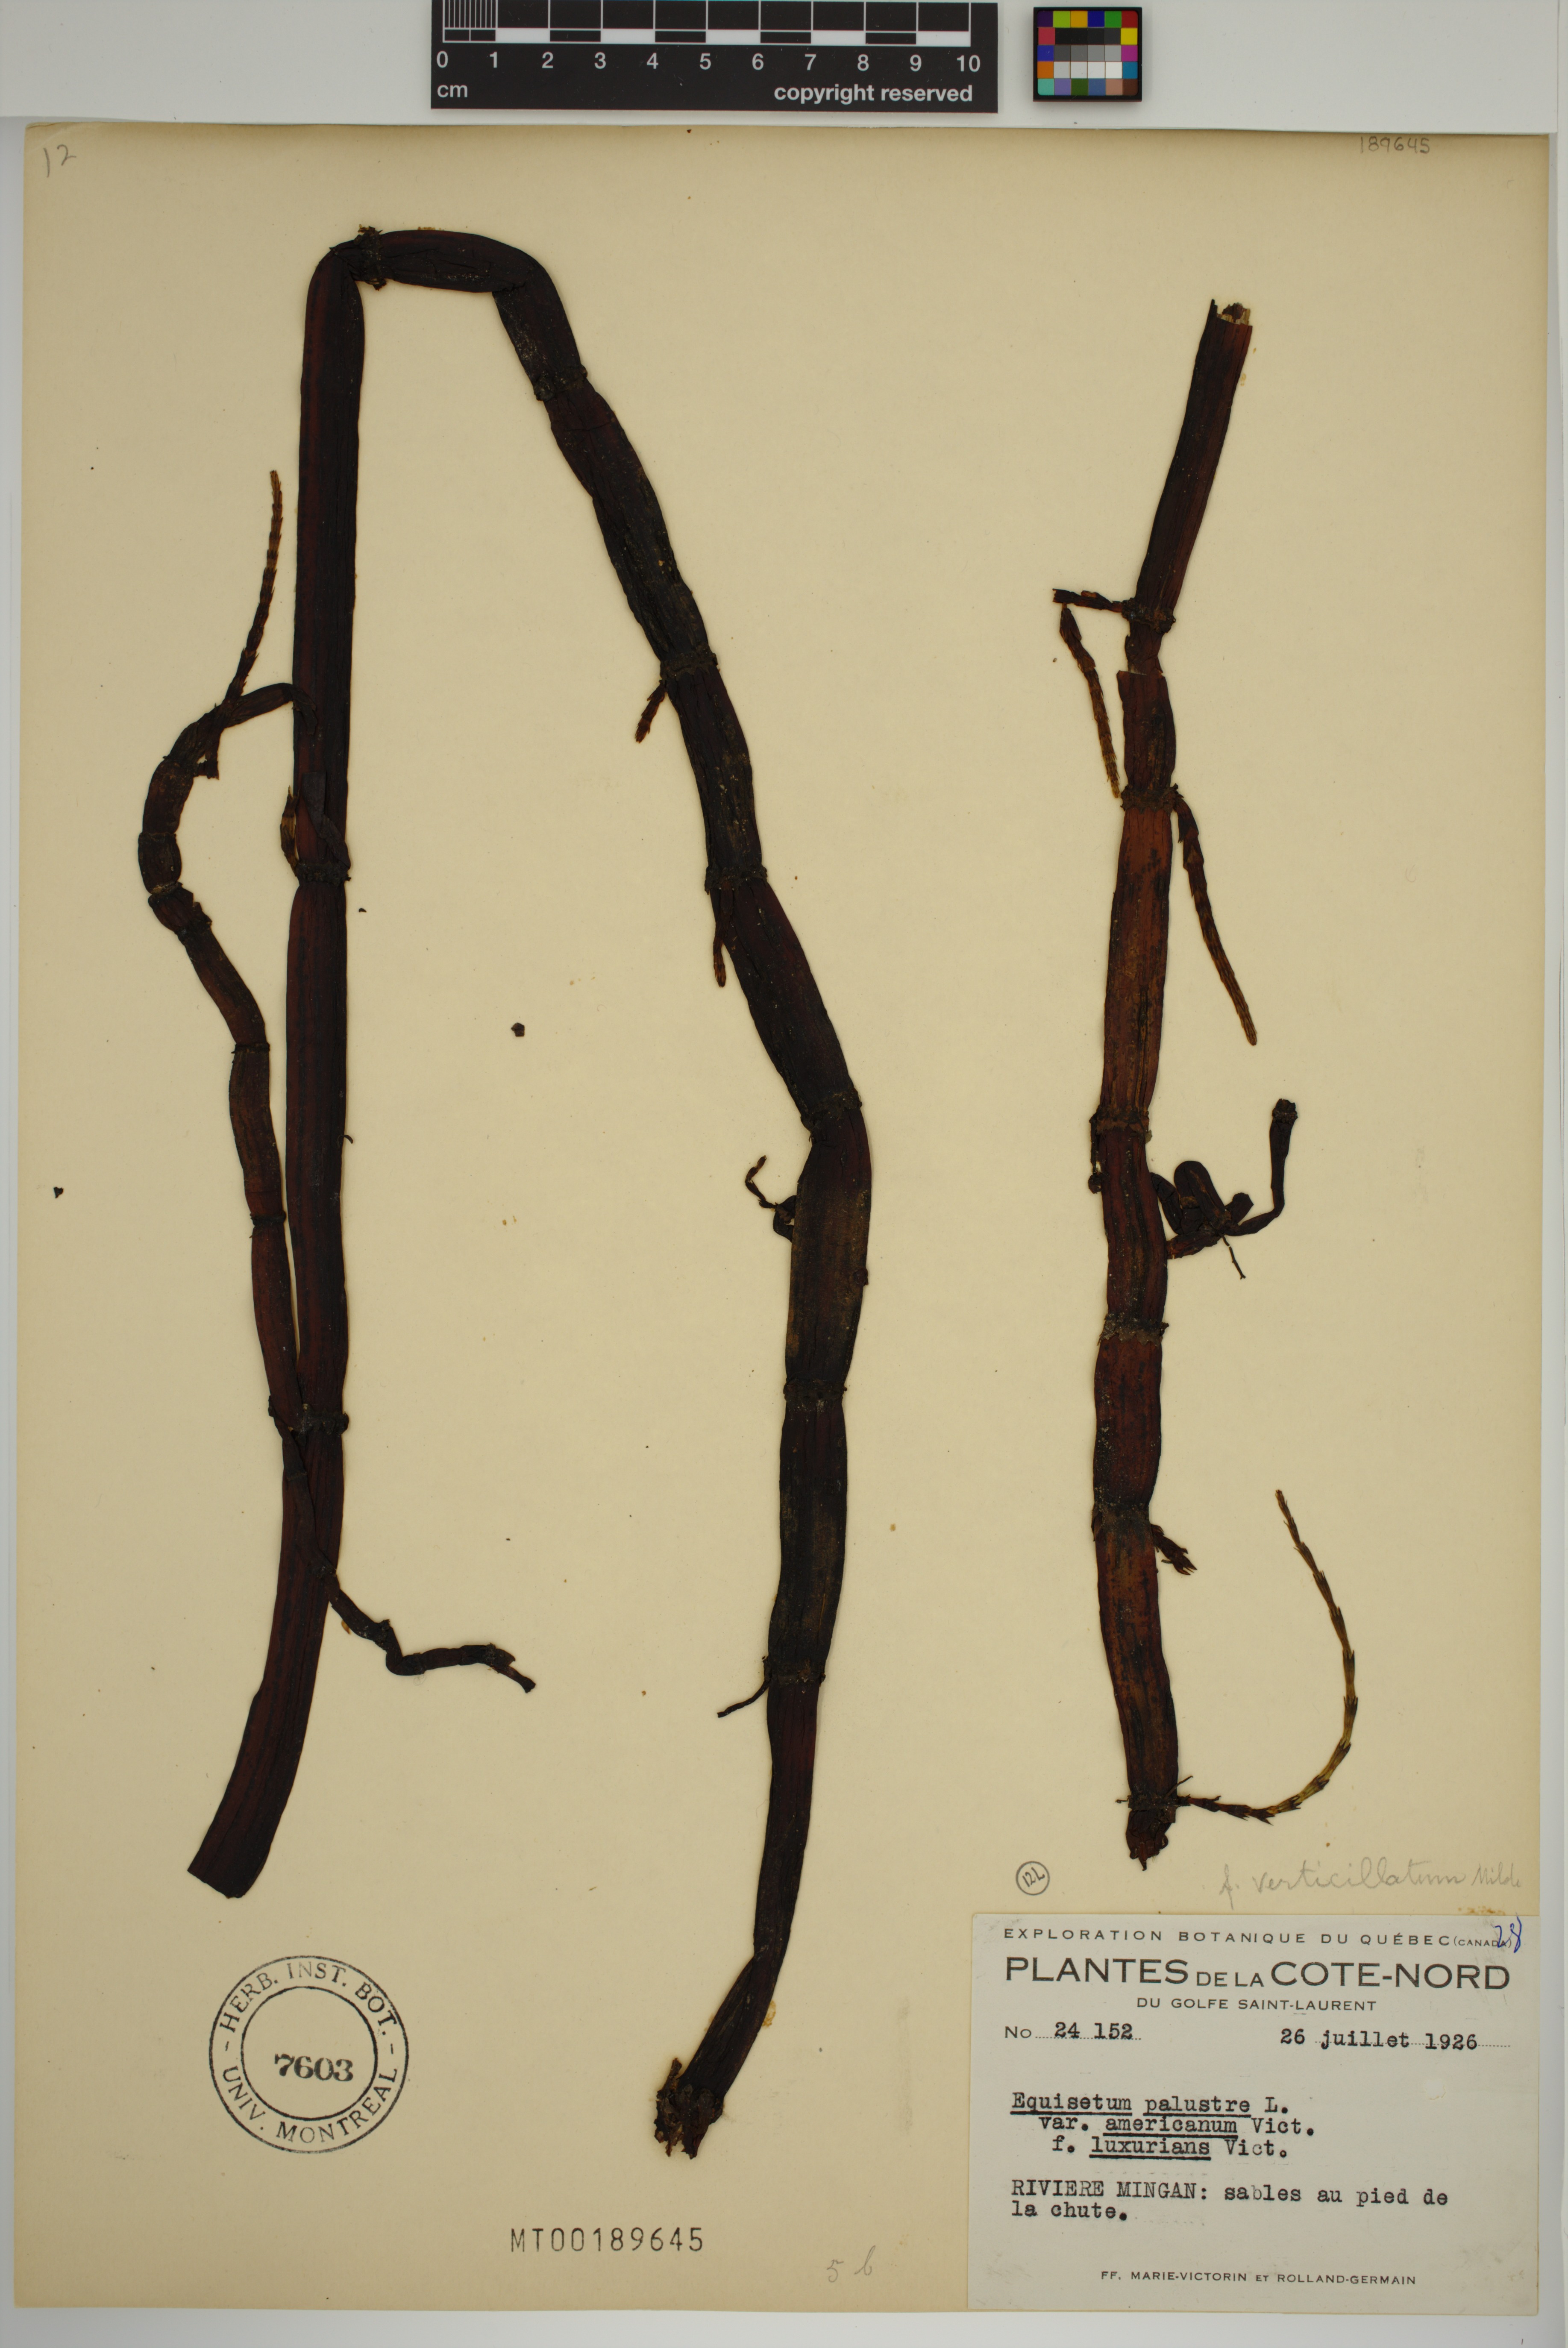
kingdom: Plantae
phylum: Tracheophyta
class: Polypodiopsida
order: Equisetales
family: Equisetaceae
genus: Equisetum
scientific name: Equisetum palustre
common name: Marsh horsetail
